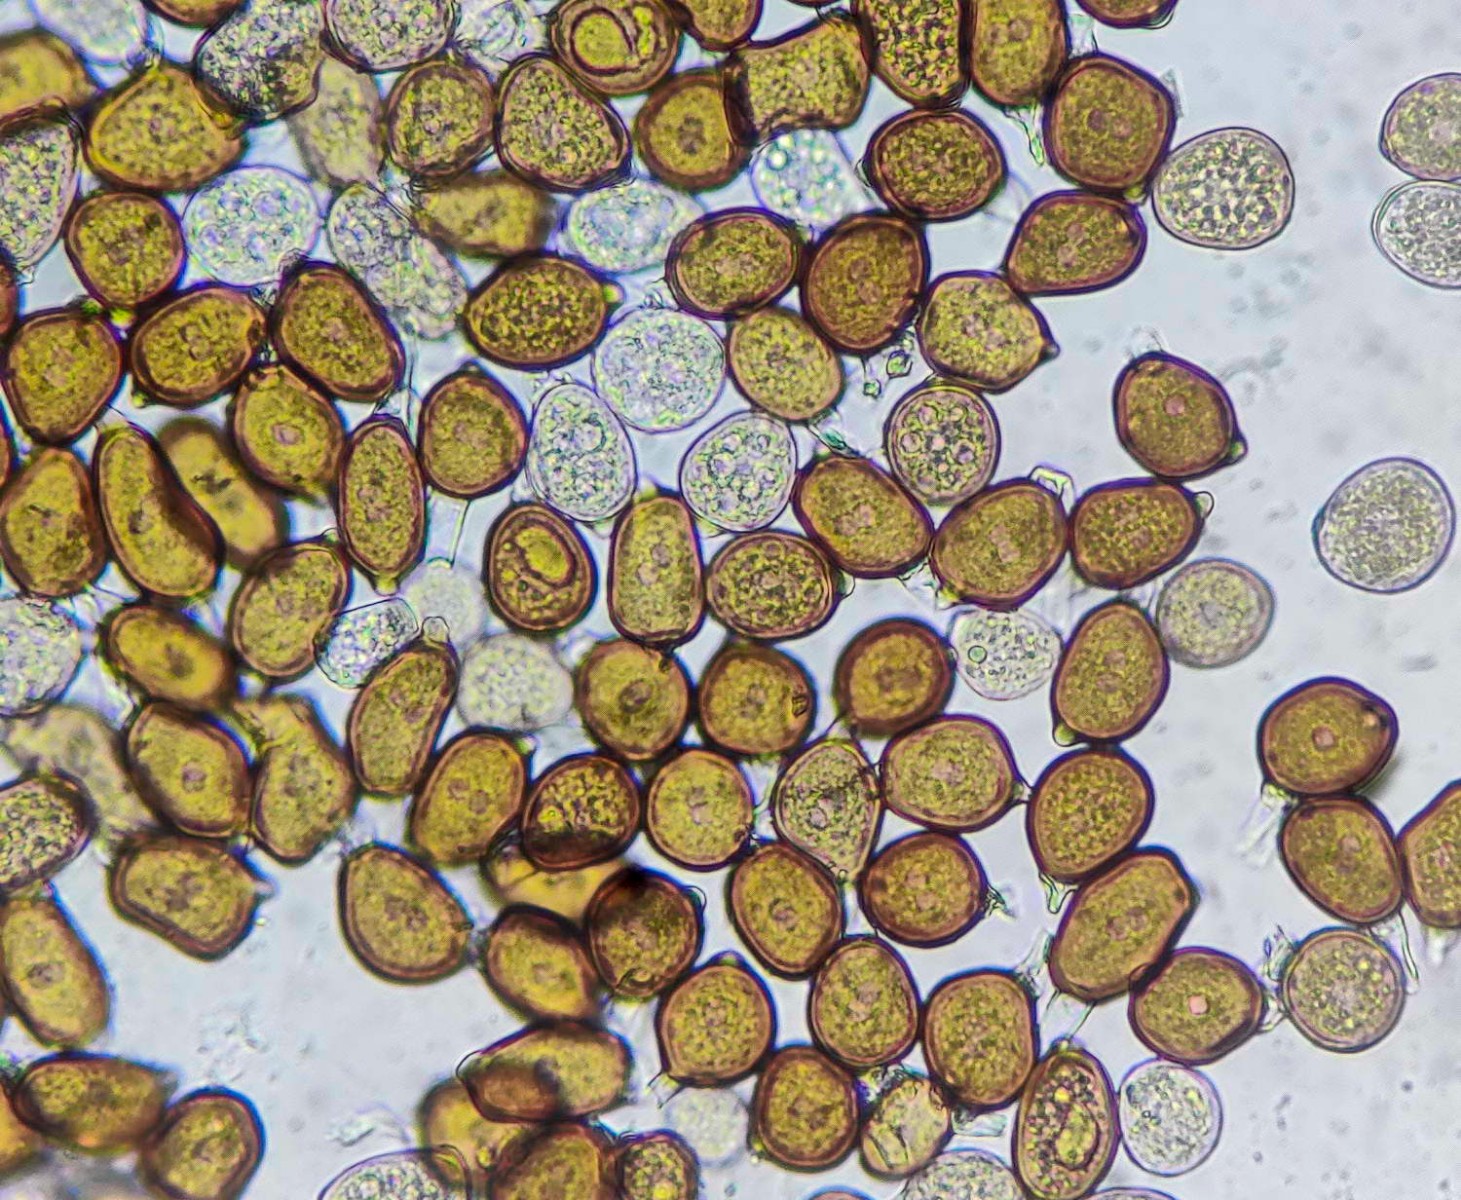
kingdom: Fungi
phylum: Basidiomycota
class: Pucciniomycetes
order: Pucciniales
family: Pucciniaceae
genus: Uromyces
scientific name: Uromyces ficariae
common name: vorterod-encellerust
